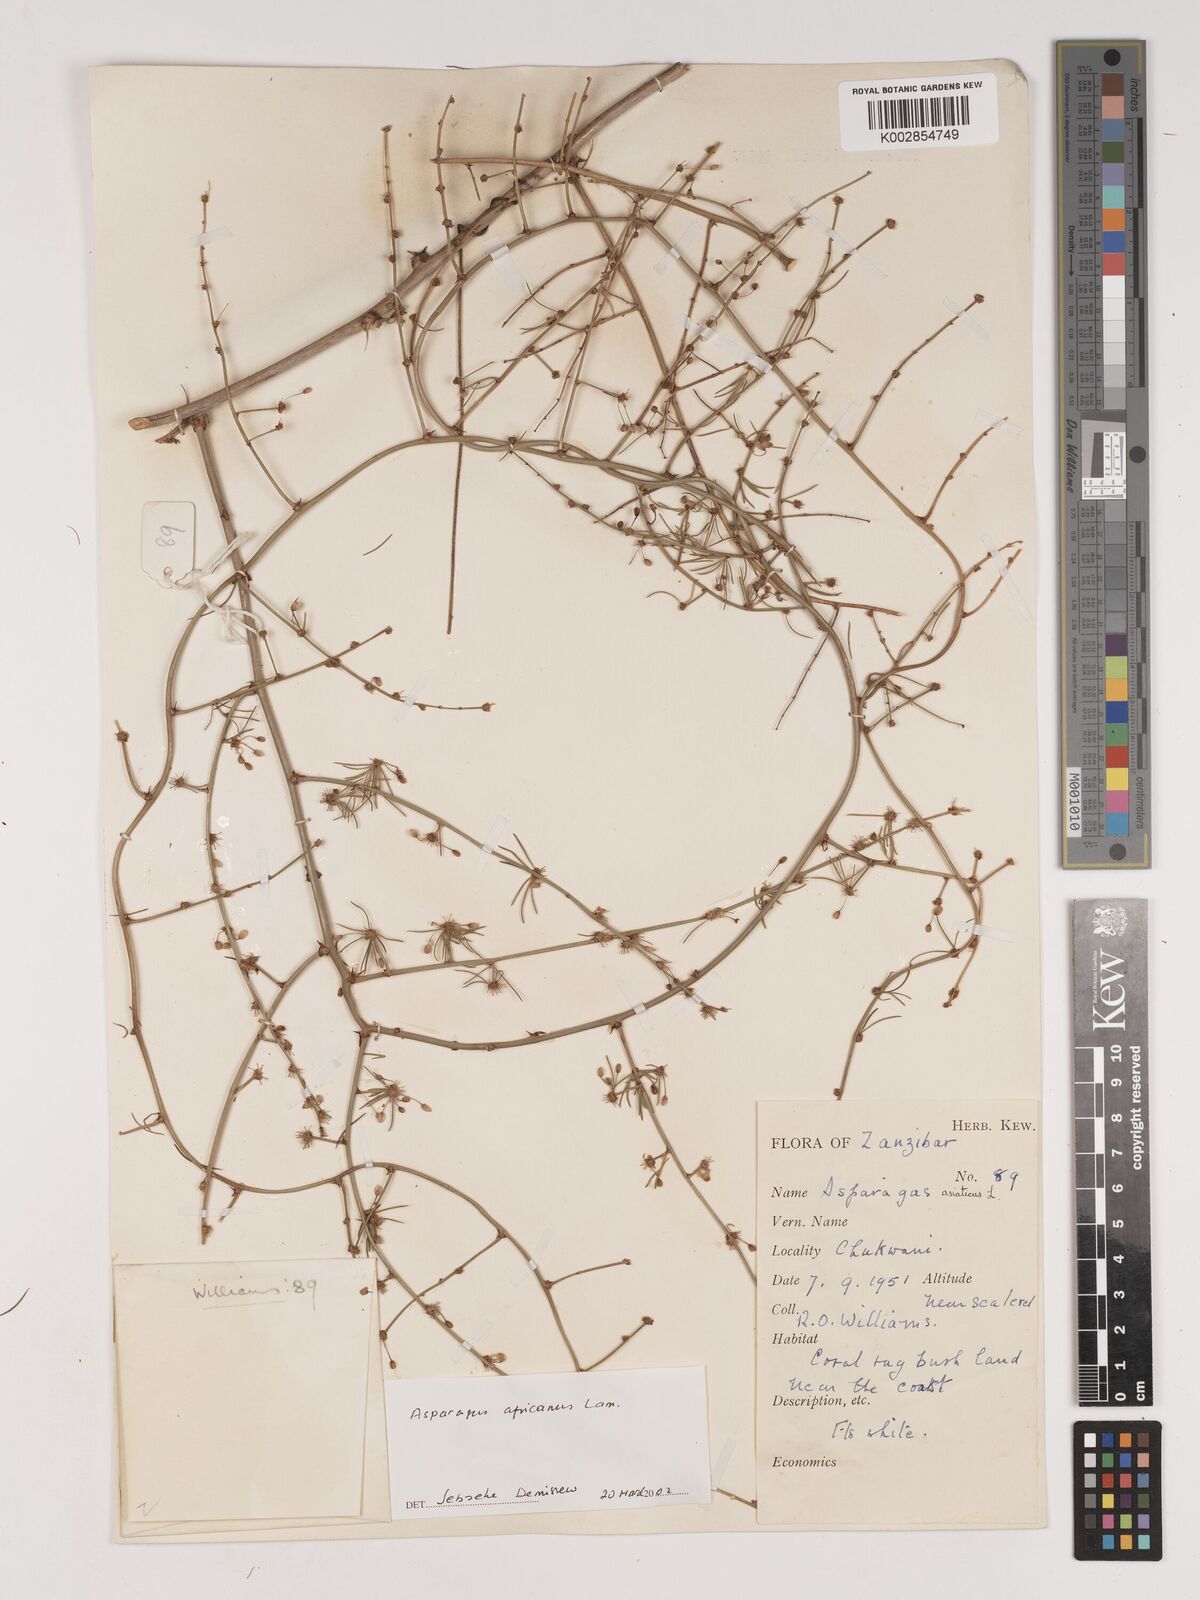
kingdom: Plantae
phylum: Tracheophyta
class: Liliopsida
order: Asparagales
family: Asparagaceae
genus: Asparagus
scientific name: Asparagus africanus
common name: Asparagus-fern
